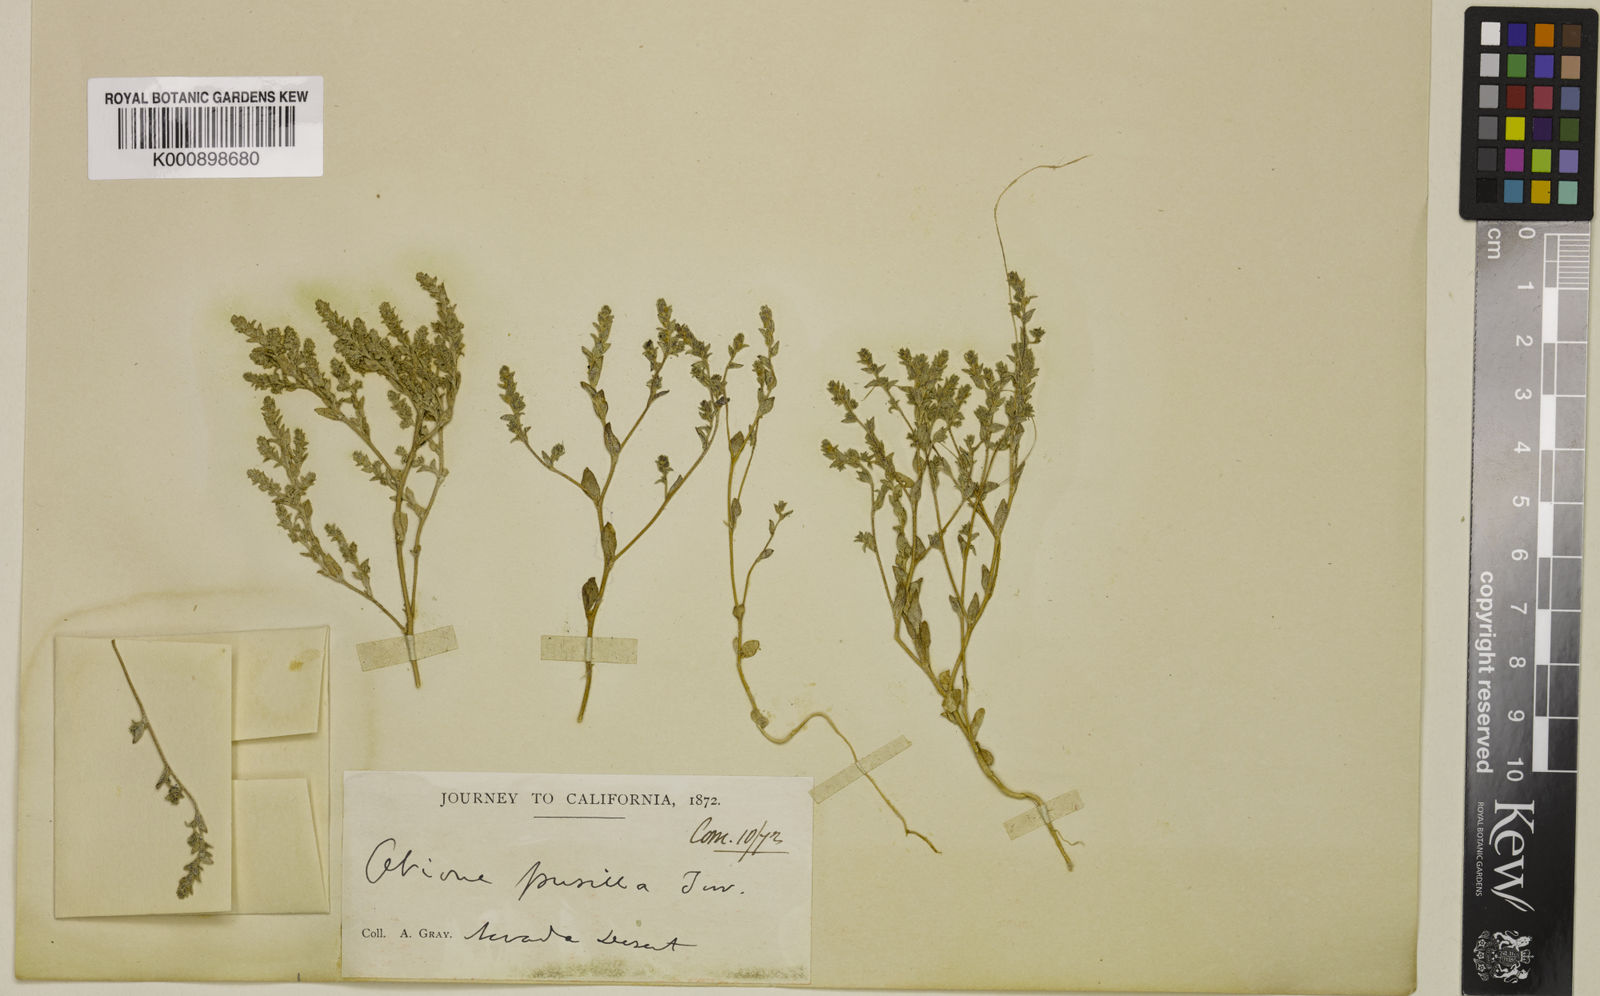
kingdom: Plantae
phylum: Tracheophyta
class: Magnoliopsida
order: Caryophyllales
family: Amaranthaceae
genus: Atriplex
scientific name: Atriplex pusilla
